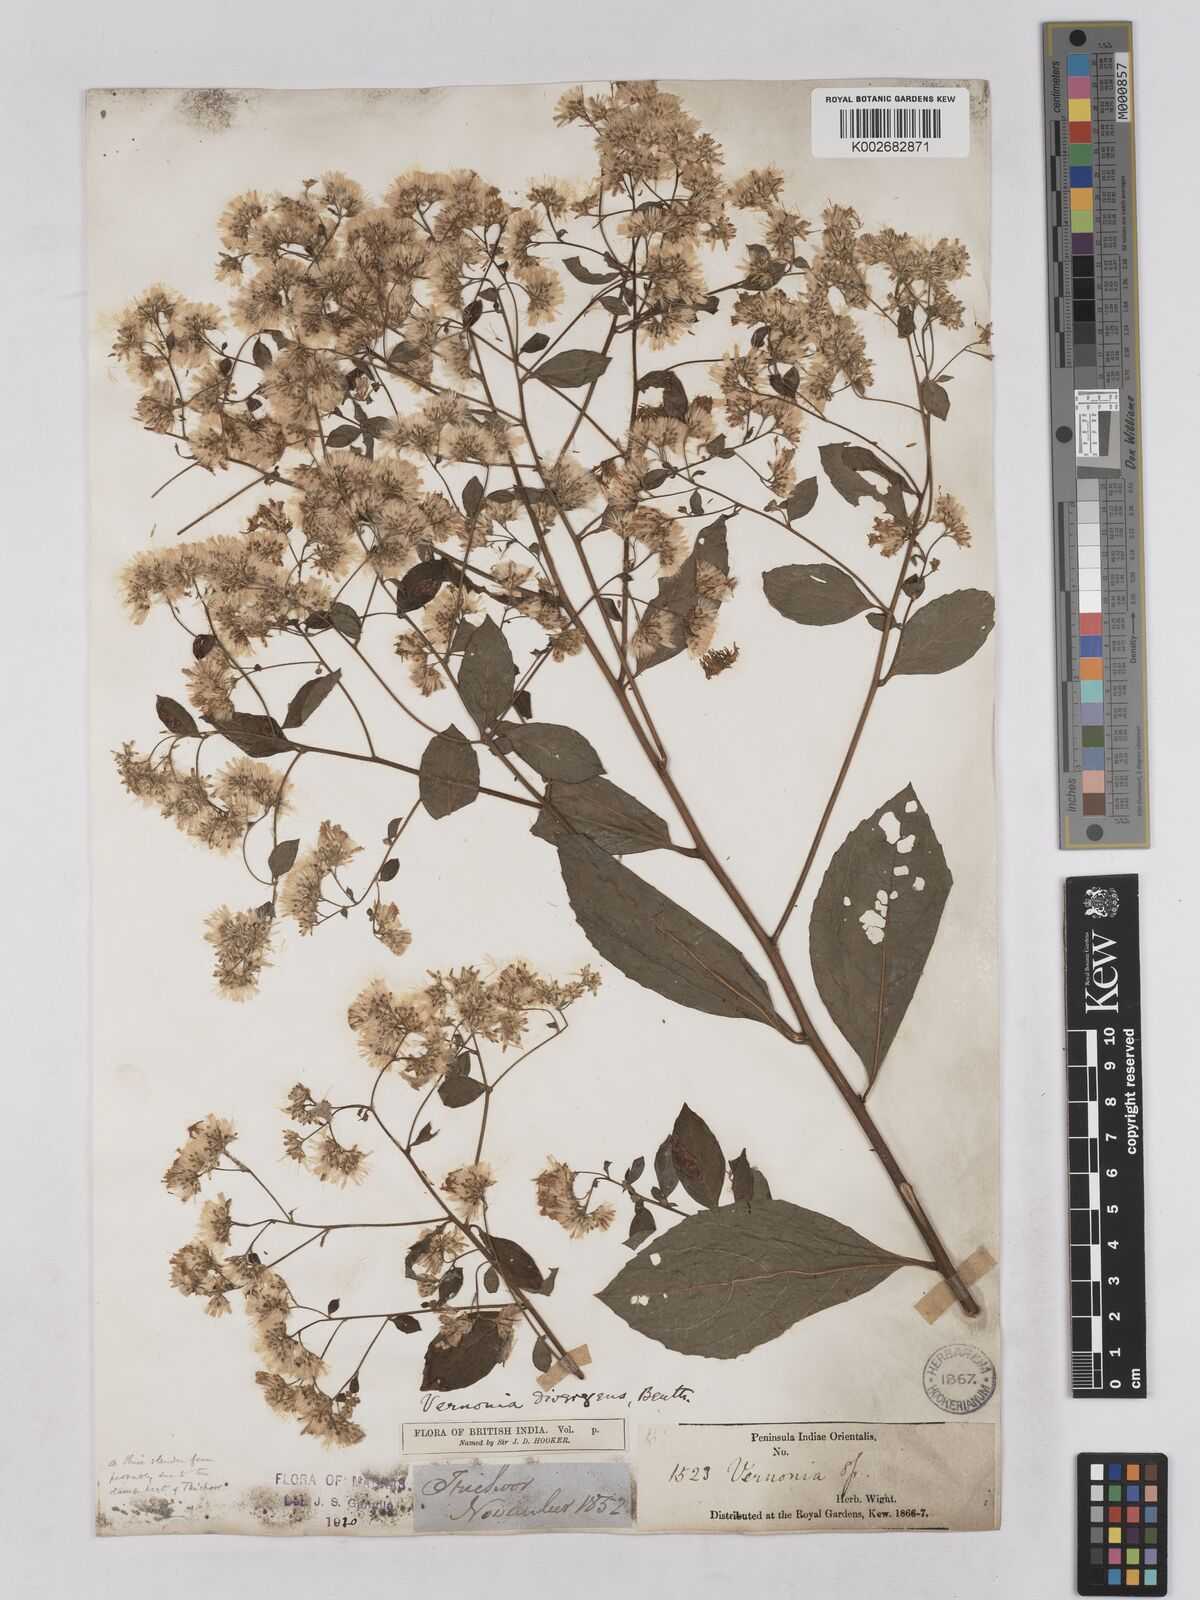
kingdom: Plantae
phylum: Tracheophyta
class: Magnoliopsida
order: Asterales
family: Asteraceae
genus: Acilepis
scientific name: Acilepis divergens
